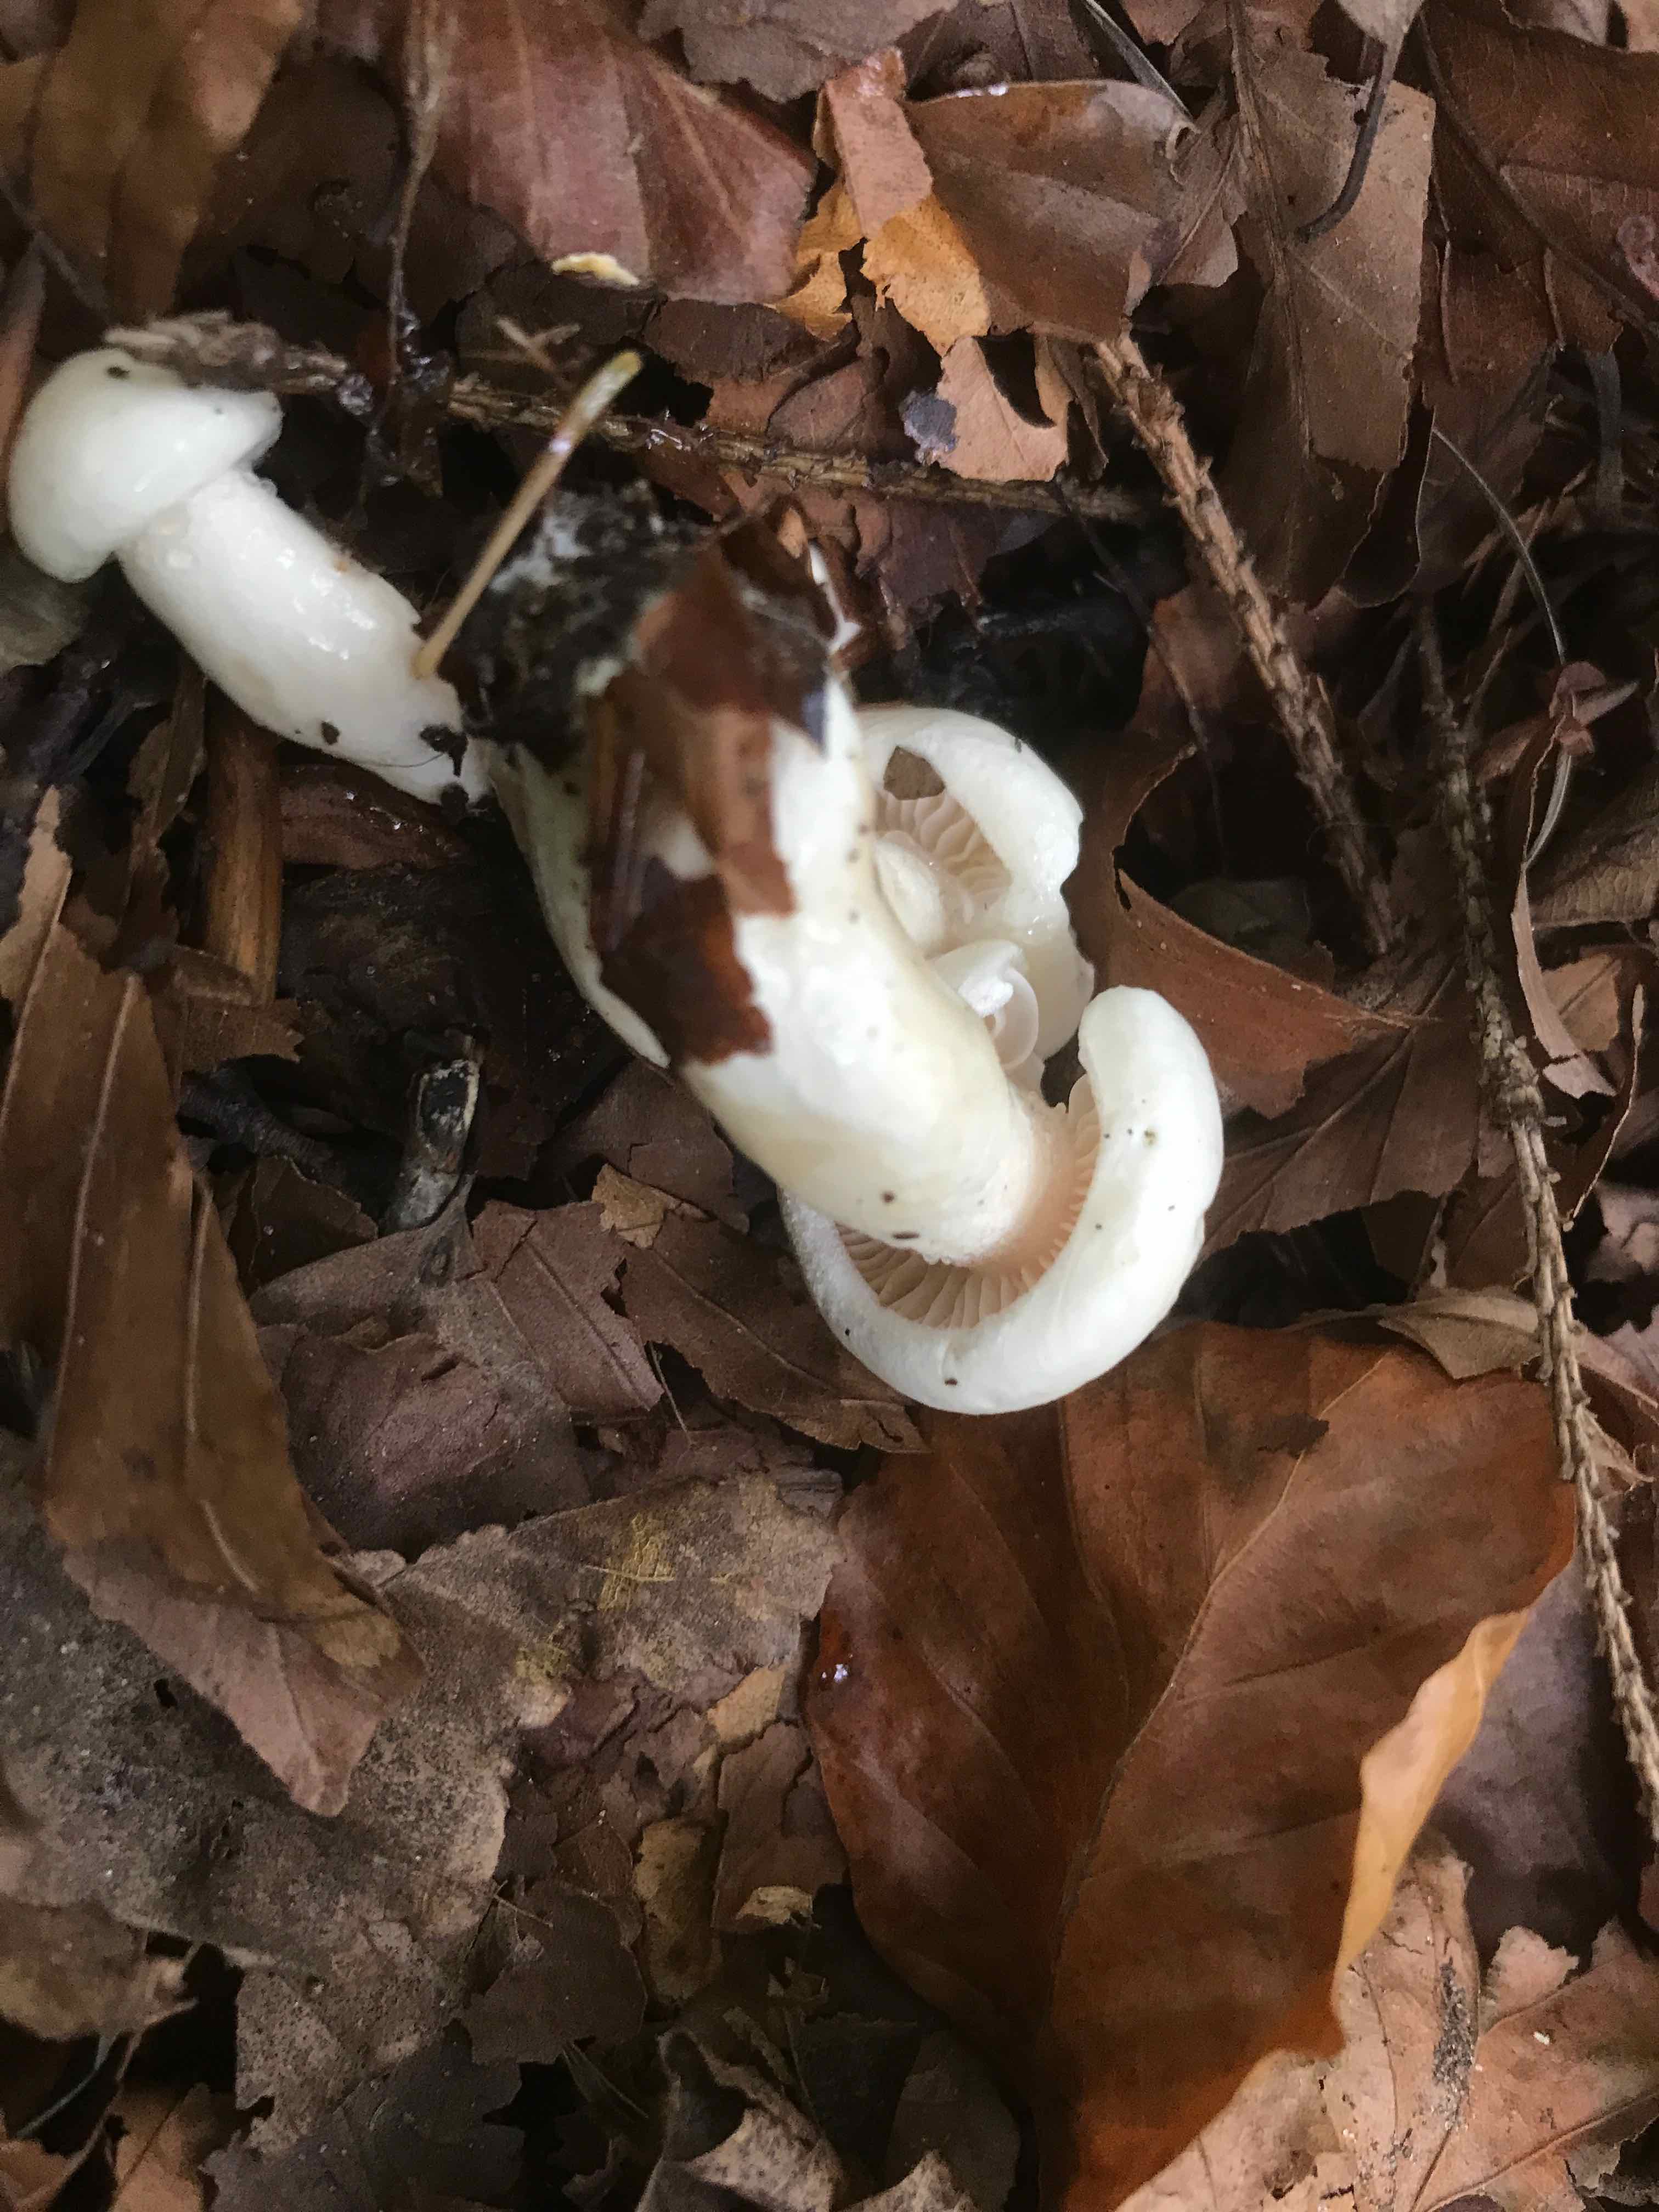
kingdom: Fungi
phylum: Basidiomycota
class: Agaricomycetes
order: Agaricales
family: Hygrophoraceae
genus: Hygrophorus
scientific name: Hygrophorus eburneus
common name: elfenbens-sneglehat
